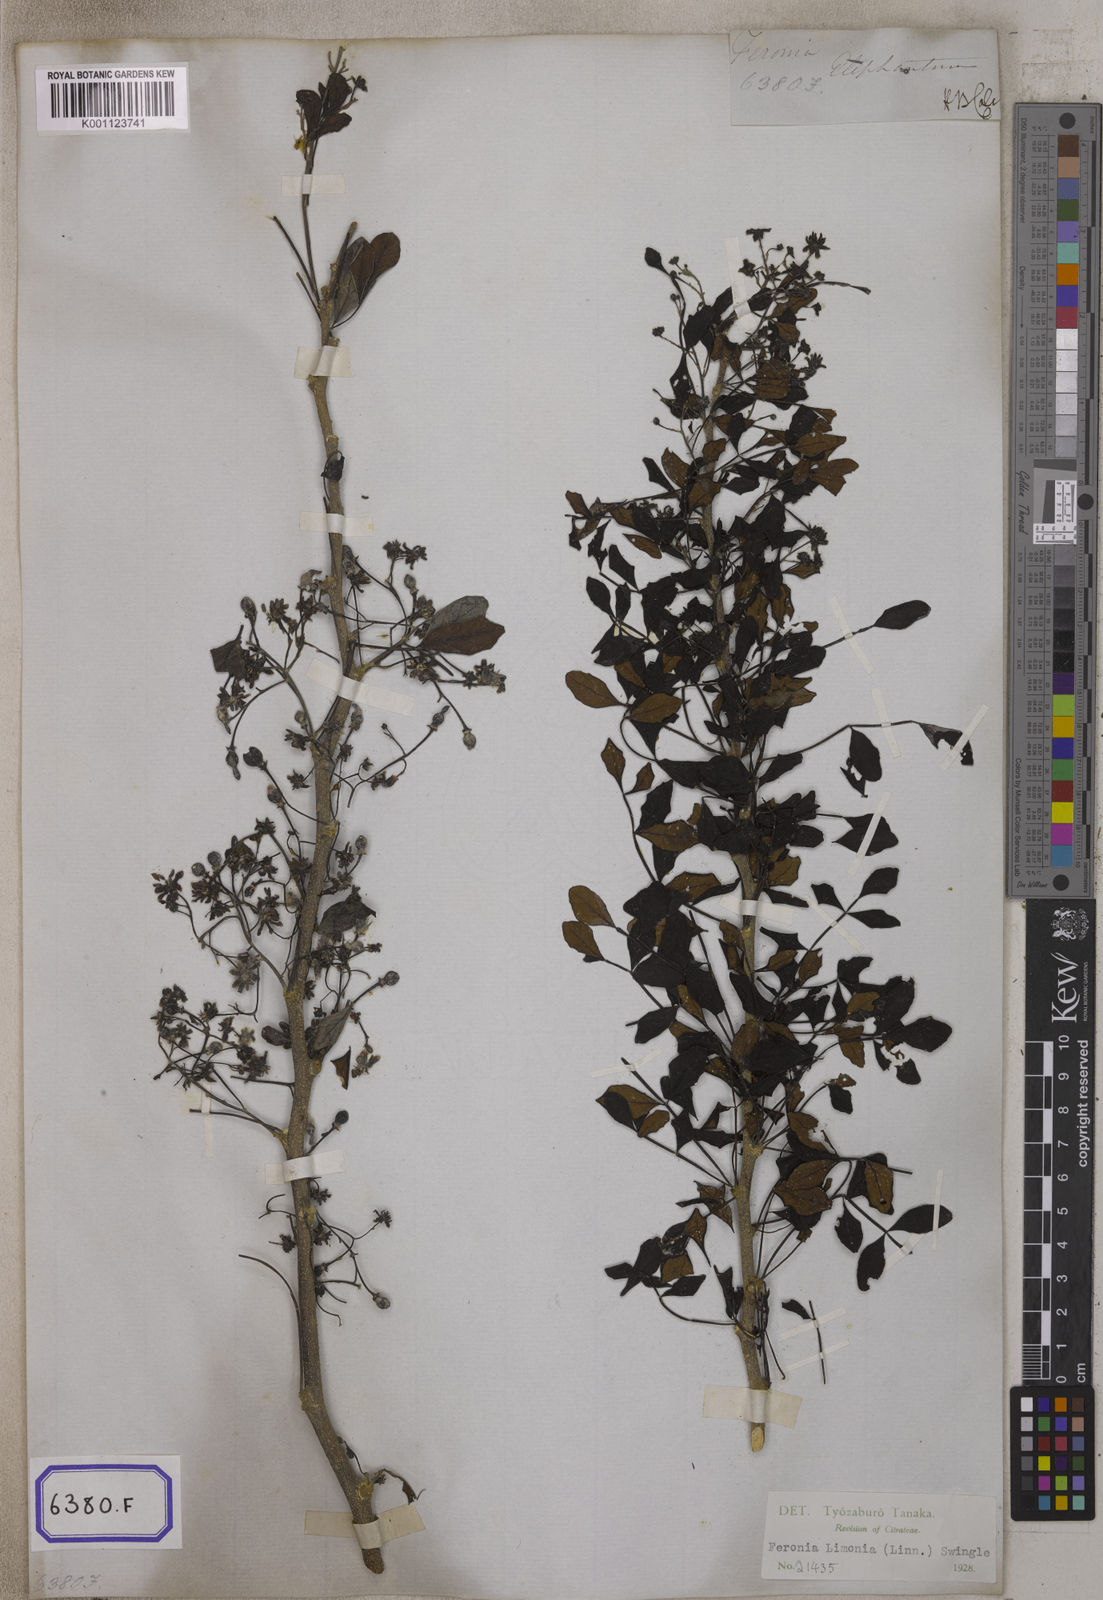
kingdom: Plantae
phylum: Tracheophyta
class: Magnoliopsida
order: Sapindales
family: Rutaceae
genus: Limonia
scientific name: Limonia acidissima
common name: Elephant apple
